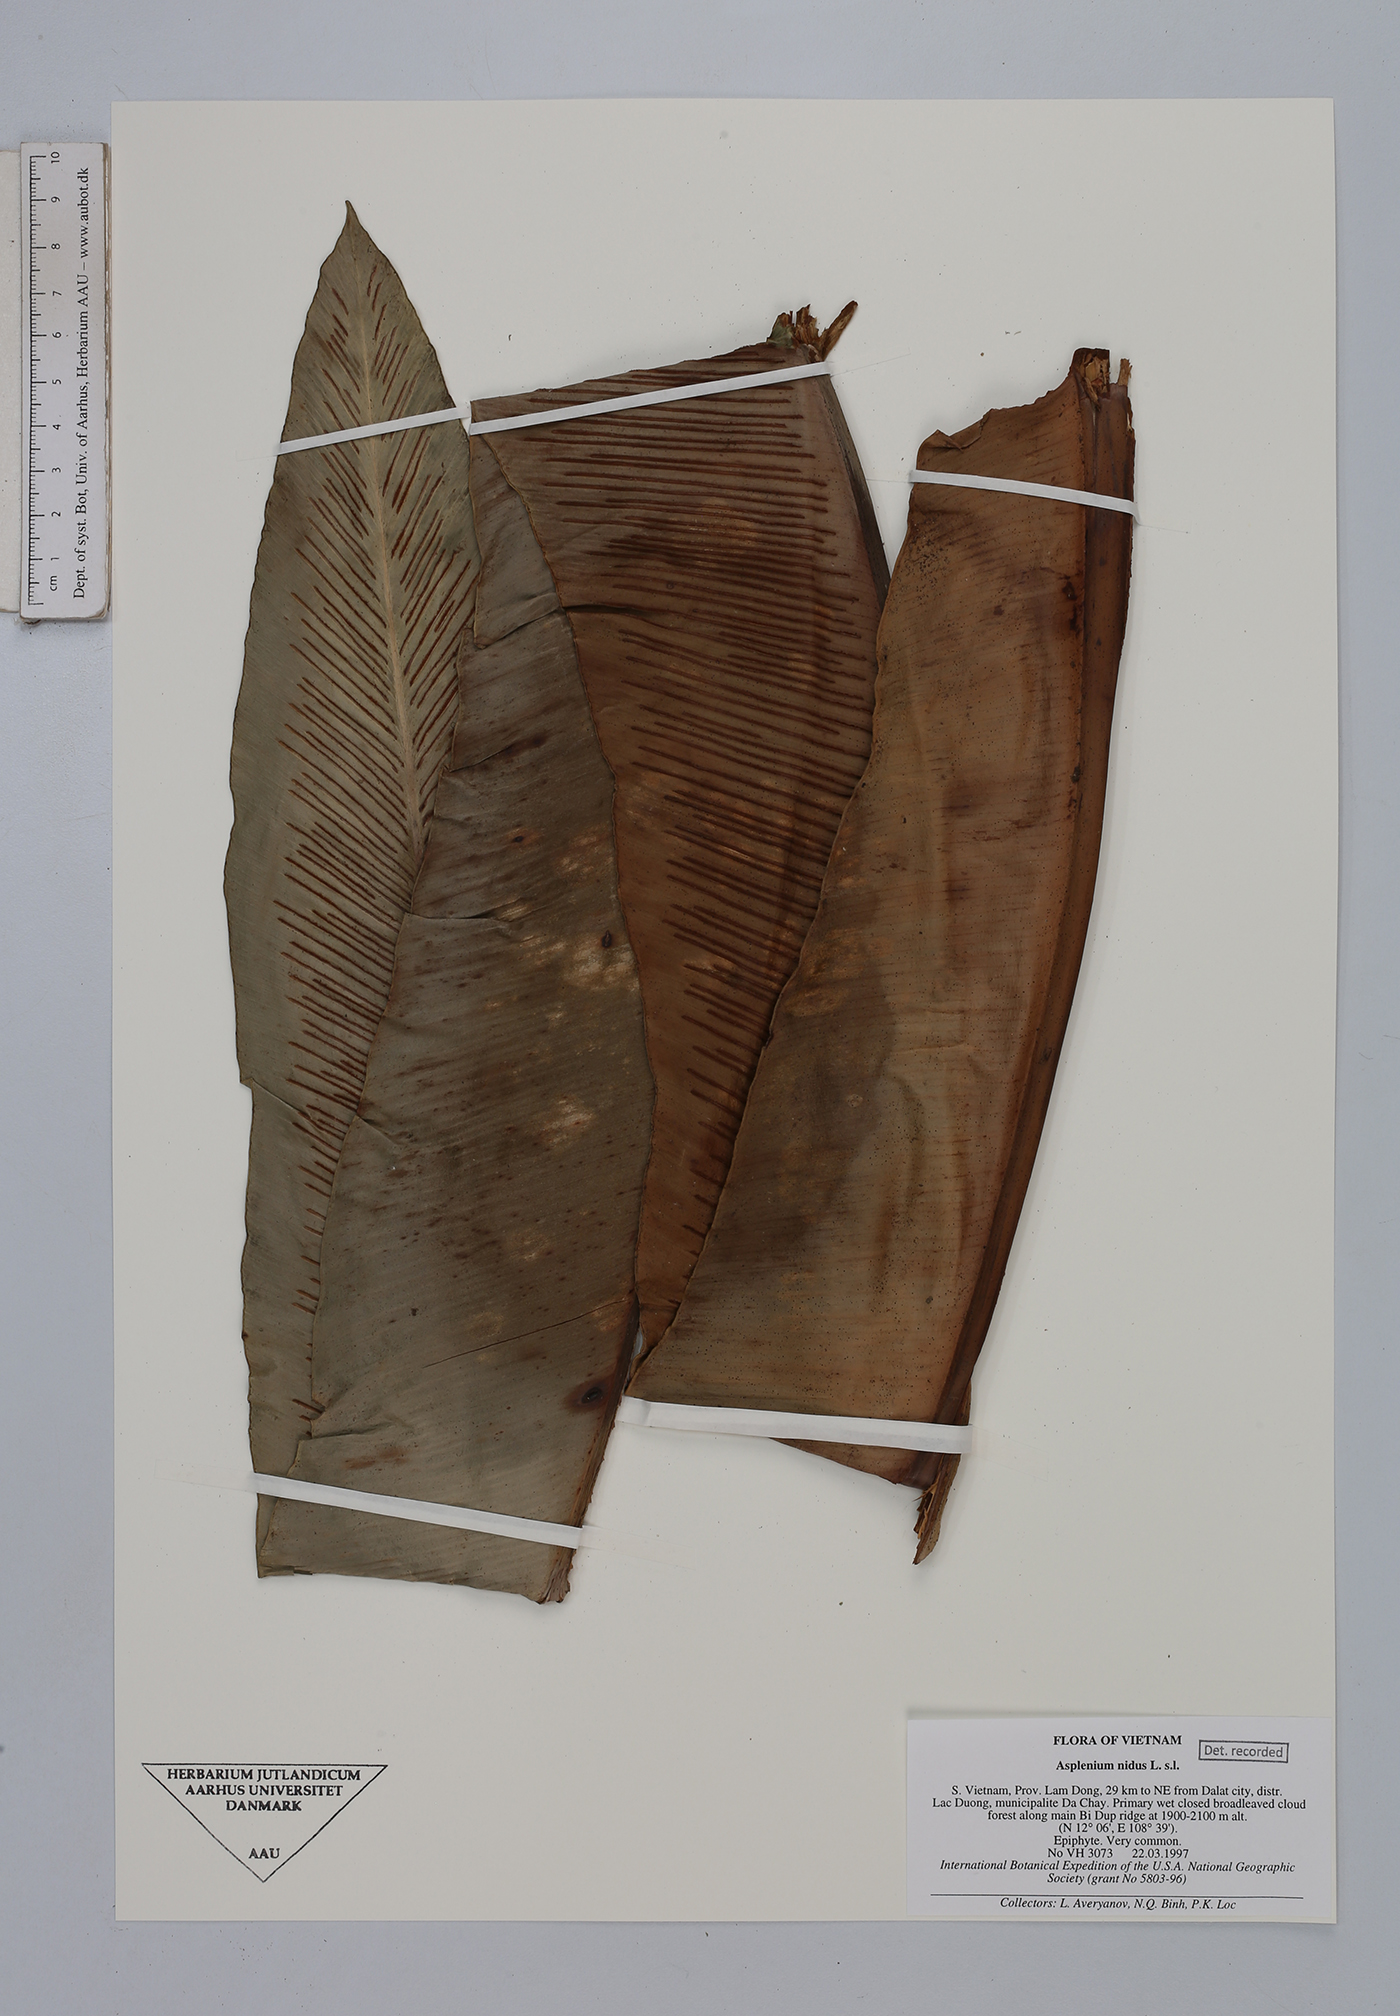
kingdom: Plantae
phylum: Tracheophyta
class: Polypodiopsida
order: Polypodiales
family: Aspleniaceae
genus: Asplenium
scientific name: Asplenium nidus
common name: Bird's-nest fern
